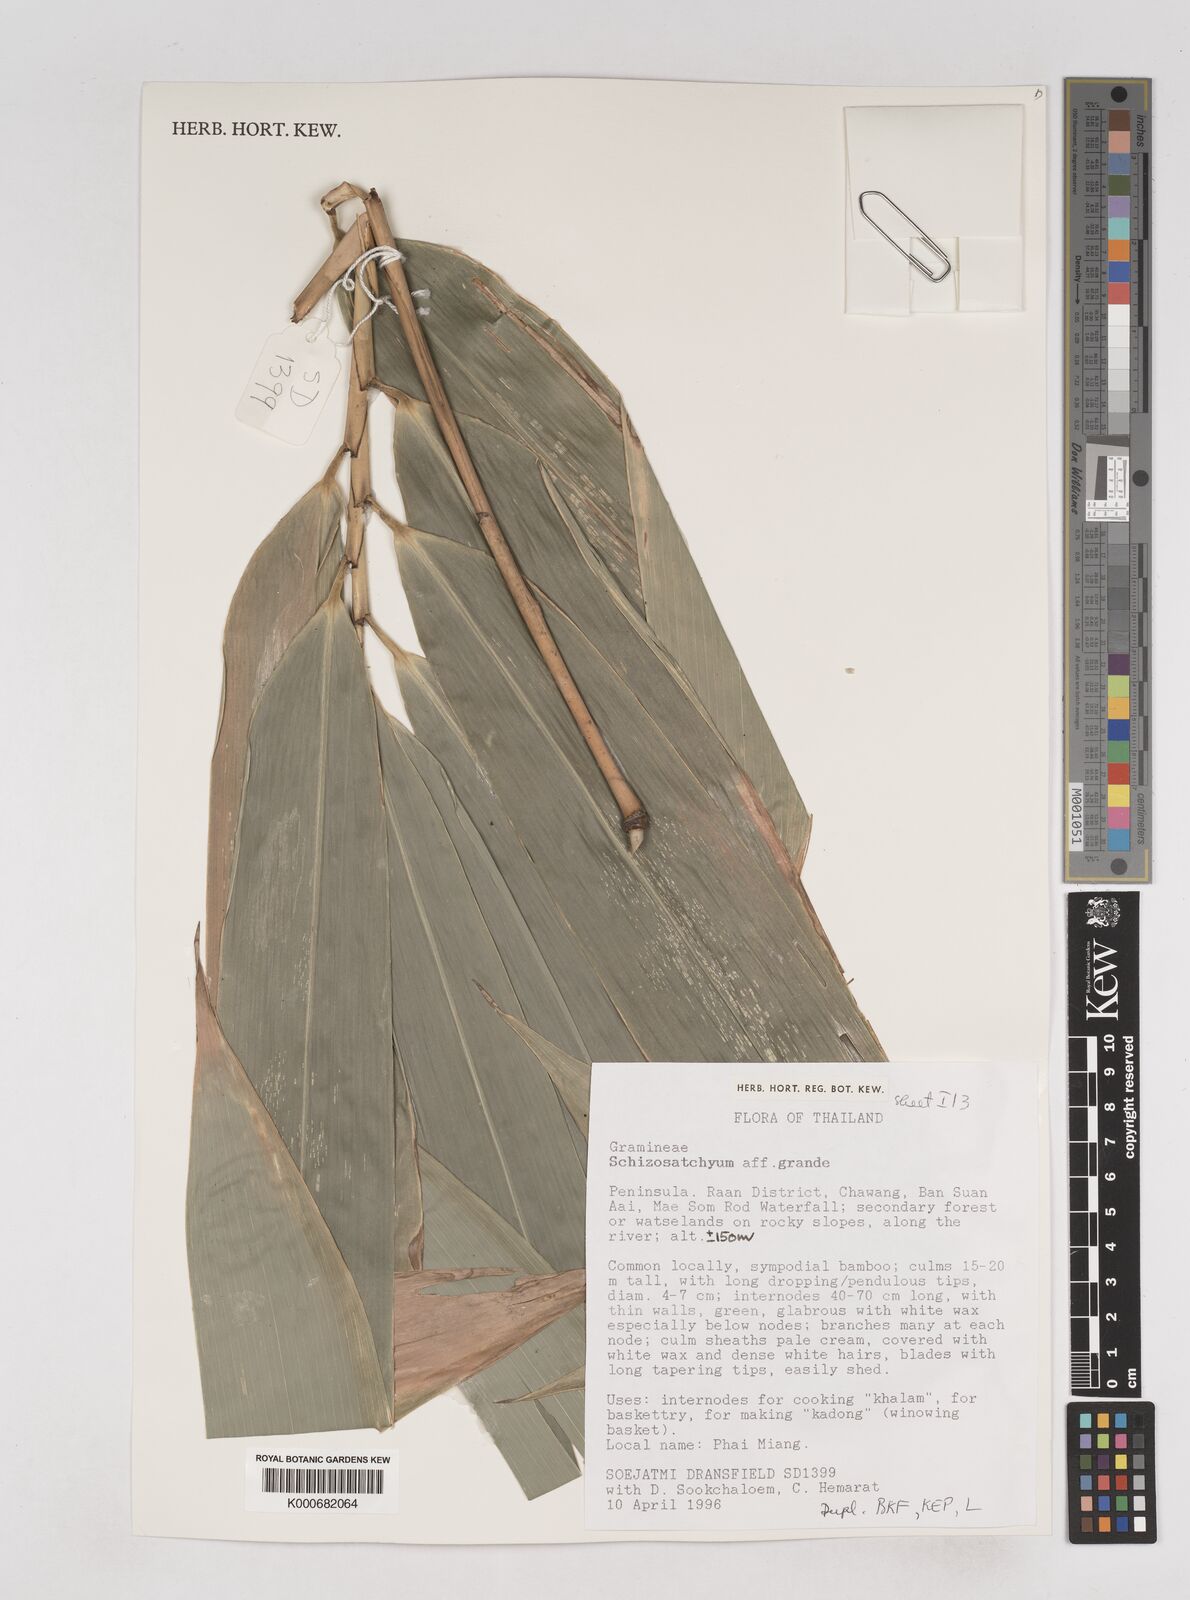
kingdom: Plantae
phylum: Tracheophyta
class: Liliopsida
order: Poales
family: Poaceae
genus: Schizostachyum
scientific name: Schizostachyum grande
